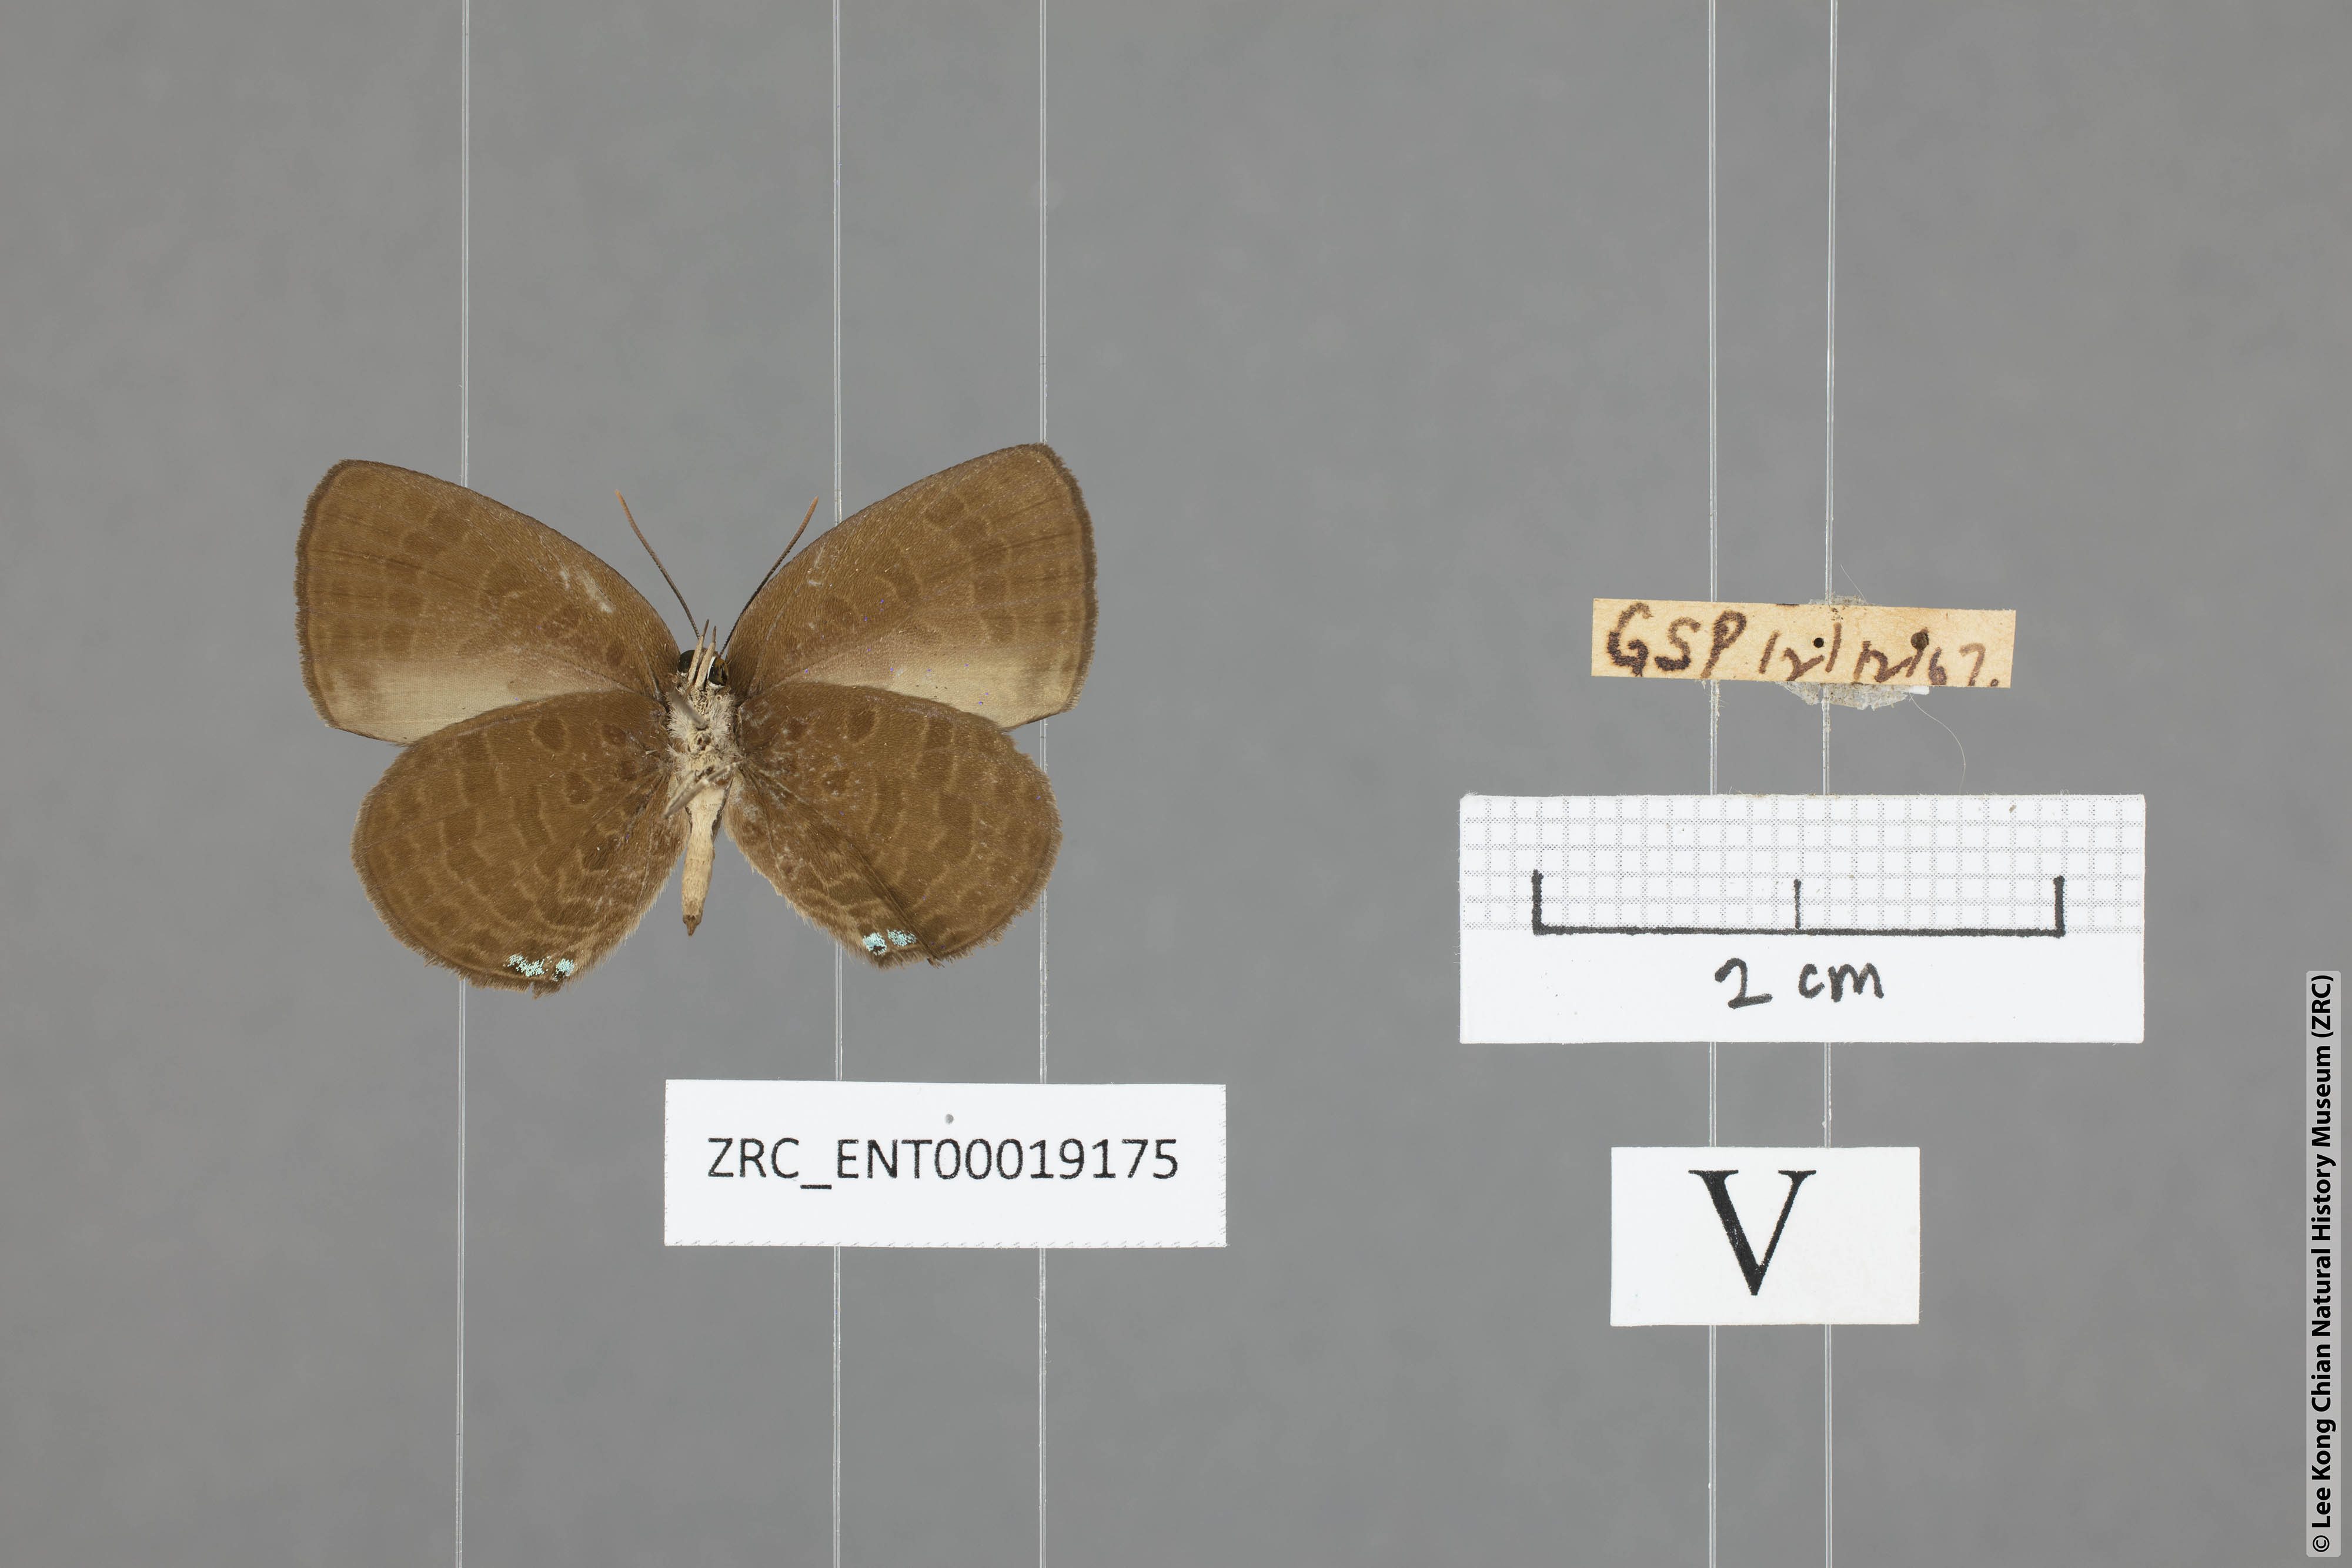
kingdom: Animalia
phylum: Arthropoda
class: Insecta
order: Lepidoptera
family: Lycaenidae
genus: Arhopala
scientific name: Arhopala antimuta
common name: Small tailless oakblue
